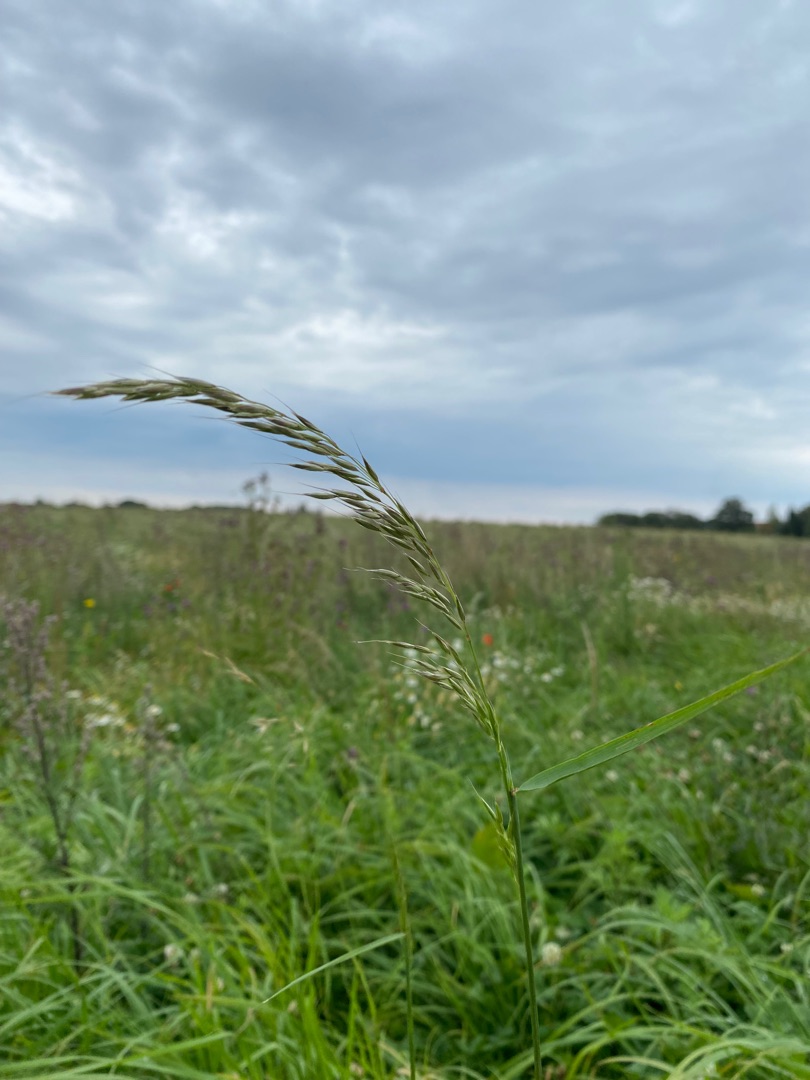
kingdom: Plantae
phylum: Tracheophyta
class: Liliopsida
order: Poales
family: Poaceae
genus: Arrhenatherum
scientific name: Arrhenatherum elatius
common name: Draphavre
